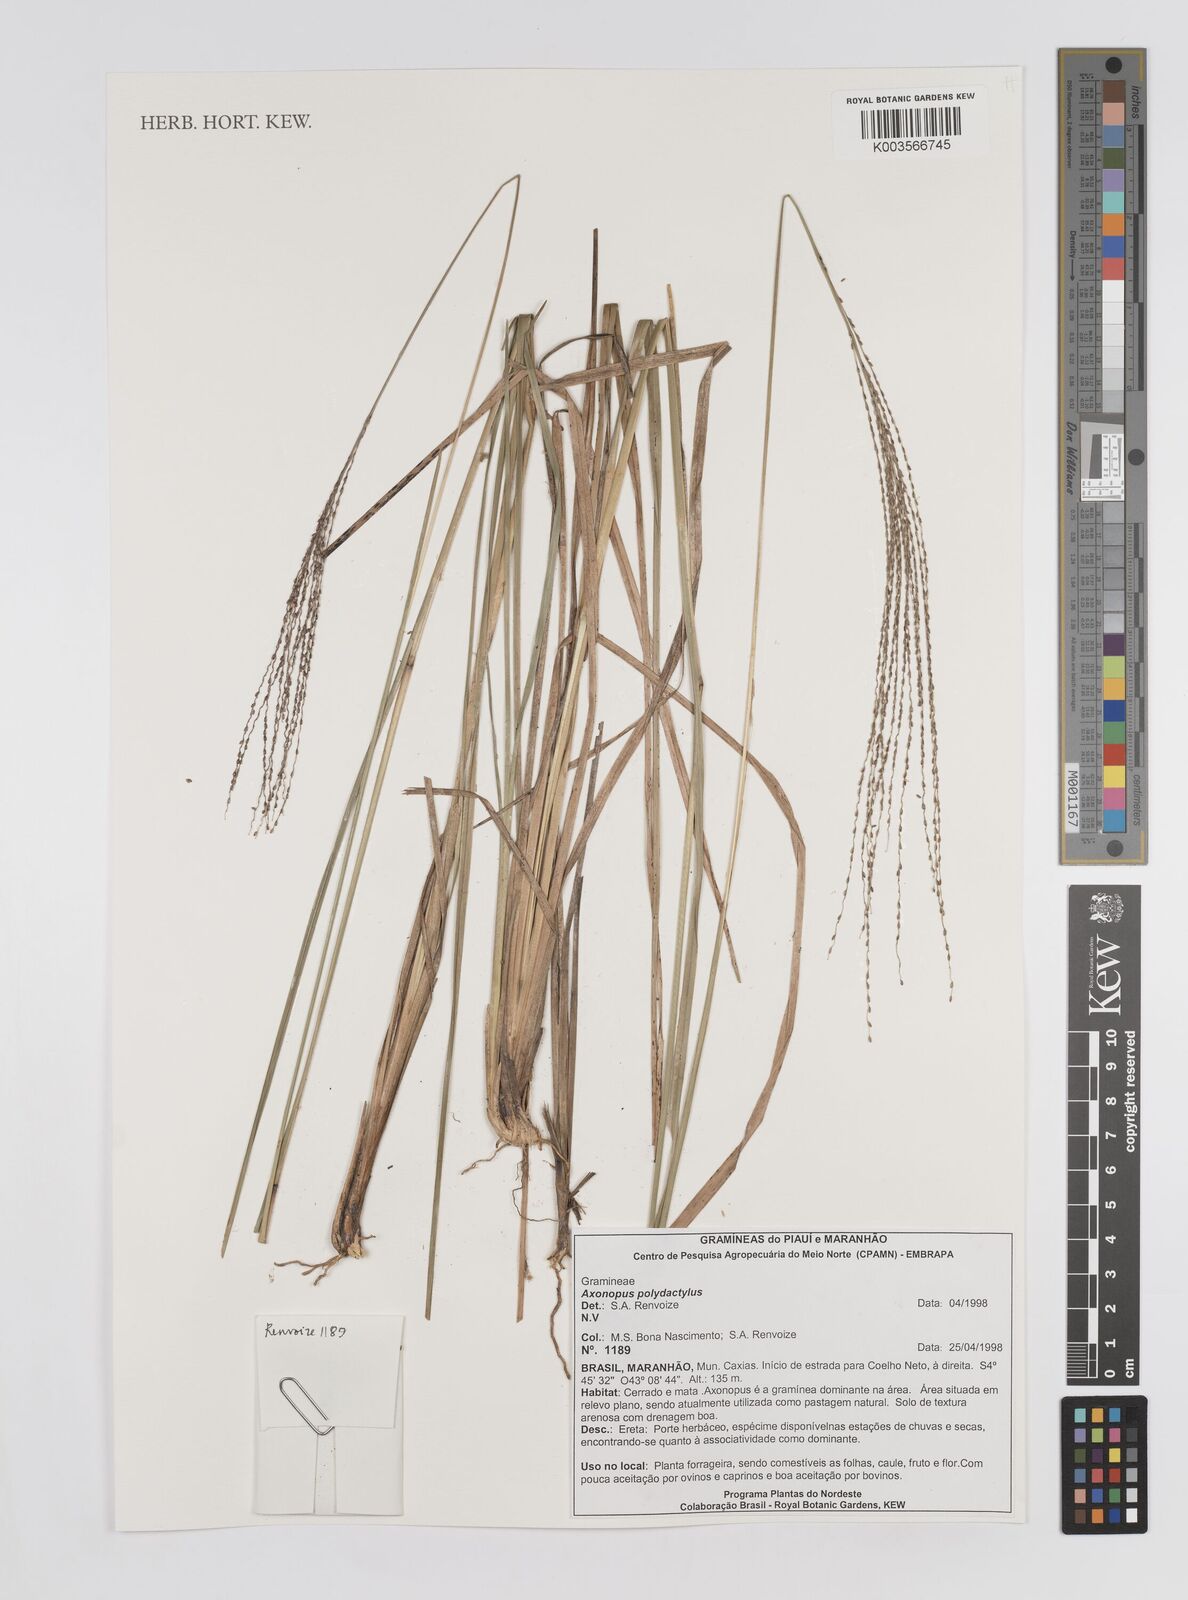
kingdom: Plantae
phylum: Tracheophyta
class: Liliopsida
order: Poales
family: Poaceae
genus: Axonopus
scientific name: Axonopus polydactylus
